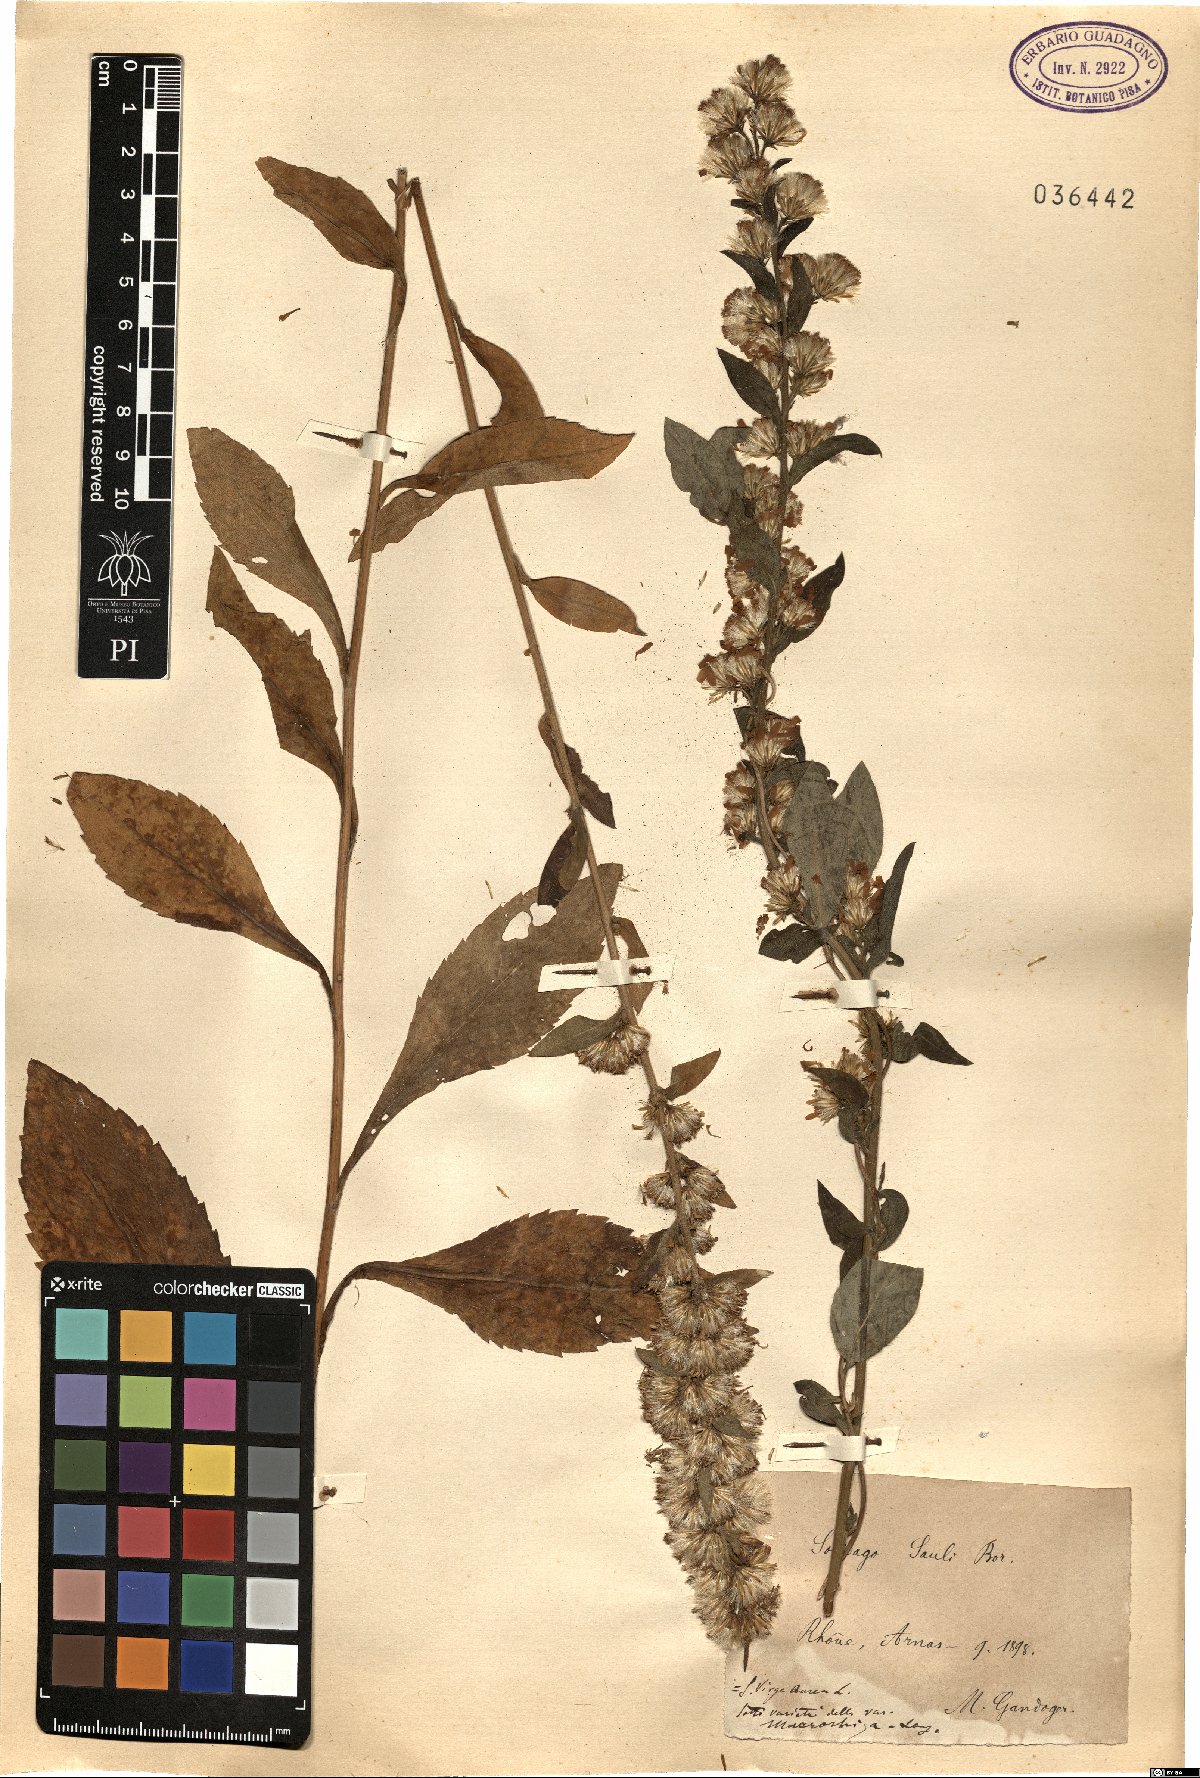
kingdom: Plantae
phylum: Tracheophyta
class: Magnoliopsida
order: Asterales
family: Asteraceae
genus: Solidago
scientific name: Solidago virgaurea
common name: Goldenrod
